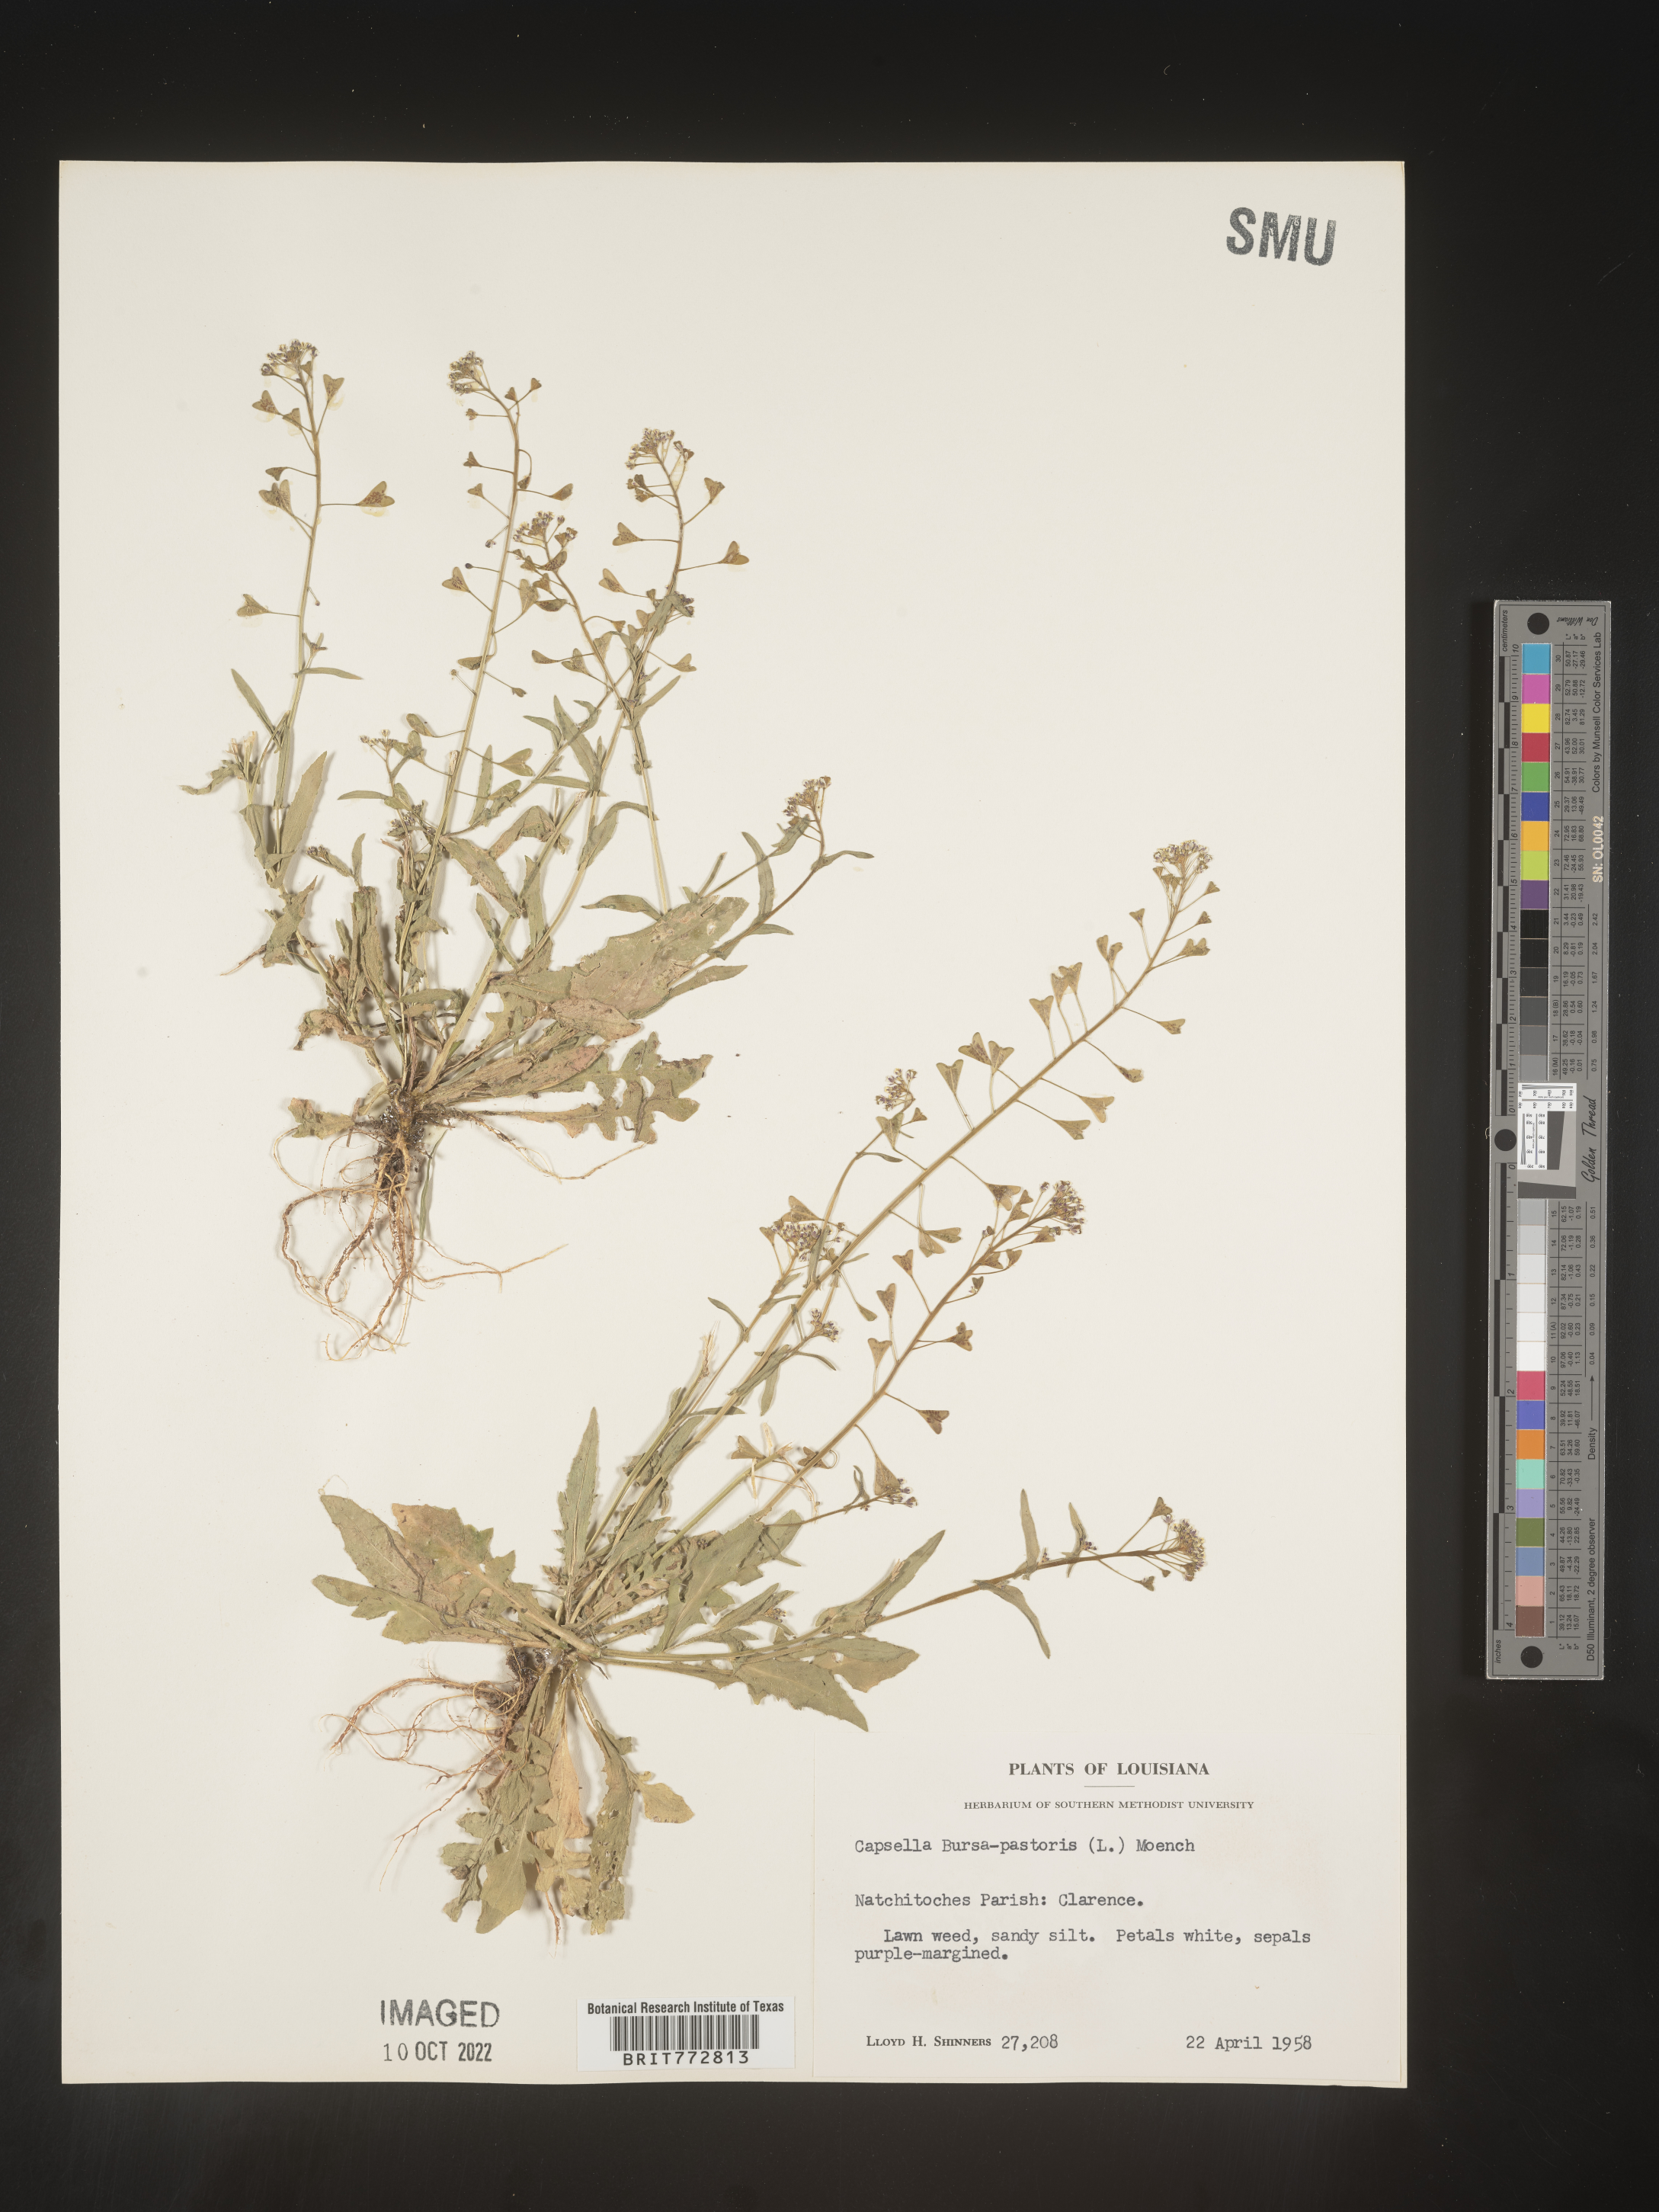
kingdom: Plantae
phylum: Tracheophyta
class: Magnoliopsida
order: Brassicales
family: Brassicaceae
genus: Capsella
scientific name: Capsella bursa-pastoris
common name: Shepherd's purse
